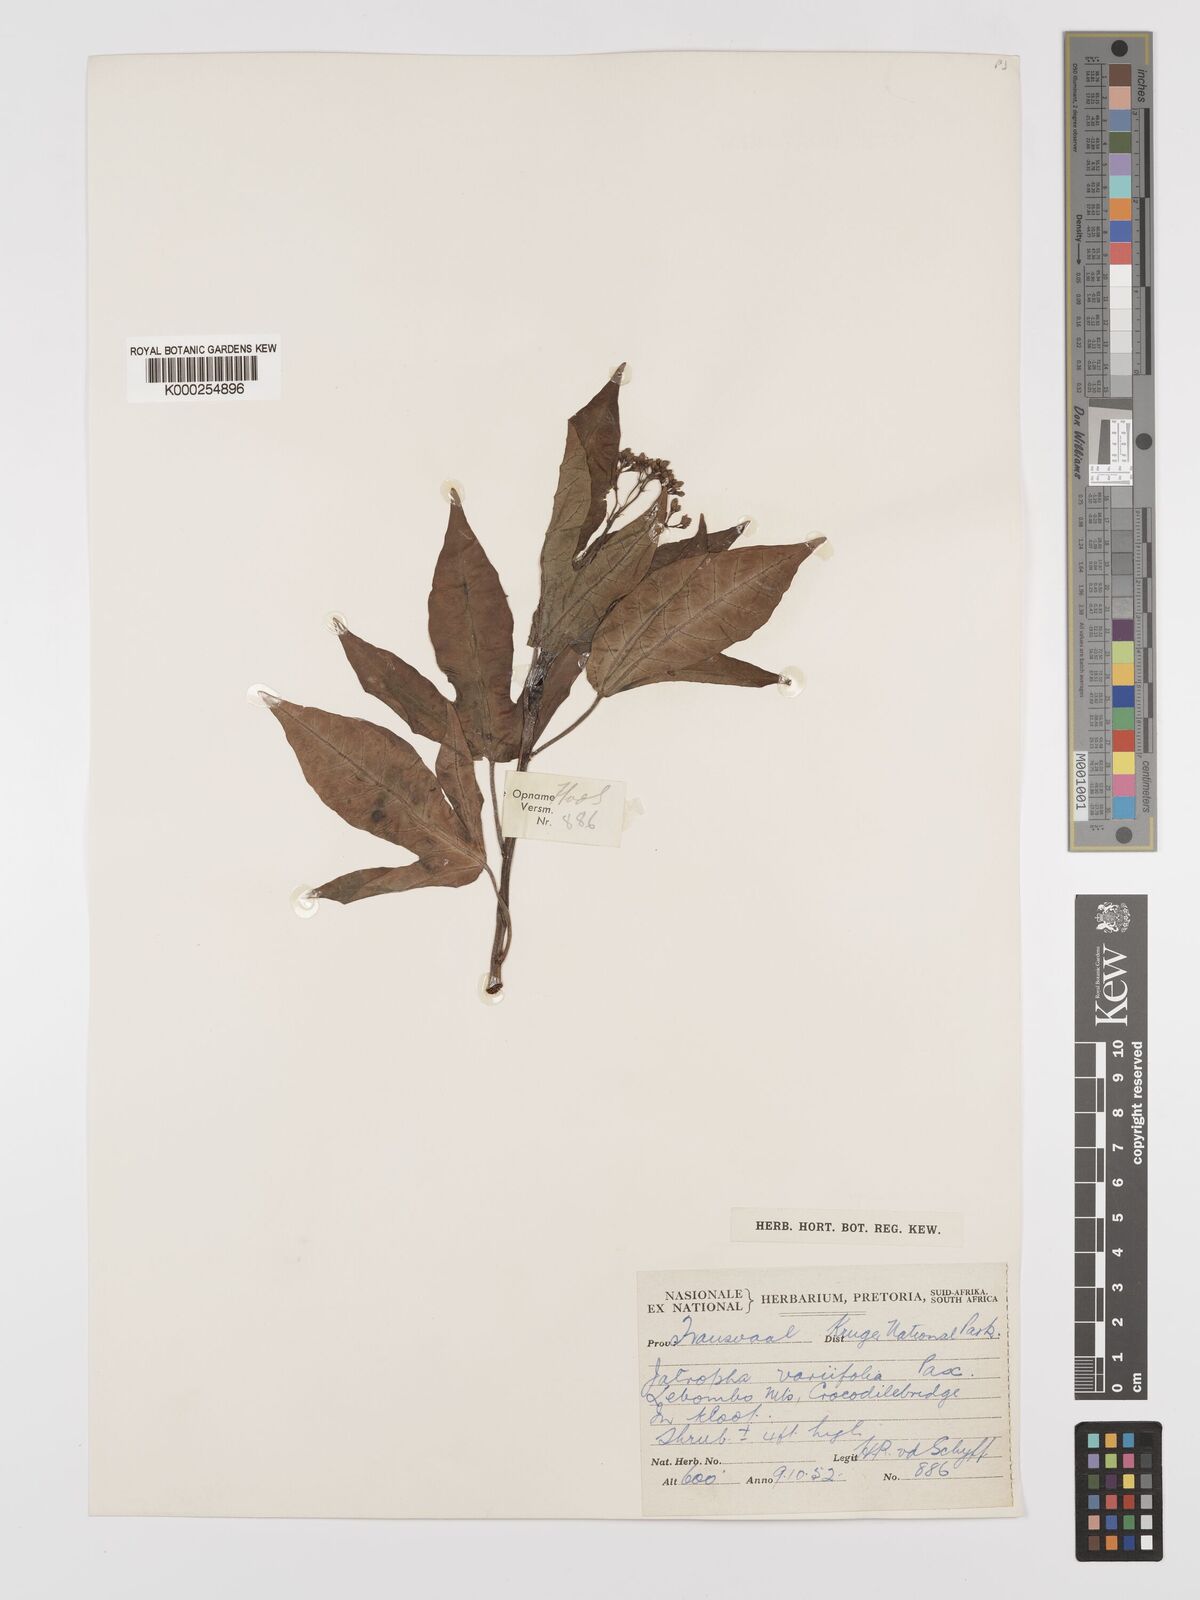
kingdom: Plantae
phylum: Tracheophyta
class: Magnoliopsida
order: Malpighiales
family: Euphorbiaceae
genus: Jatropha
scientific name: Jatropha variifolia
